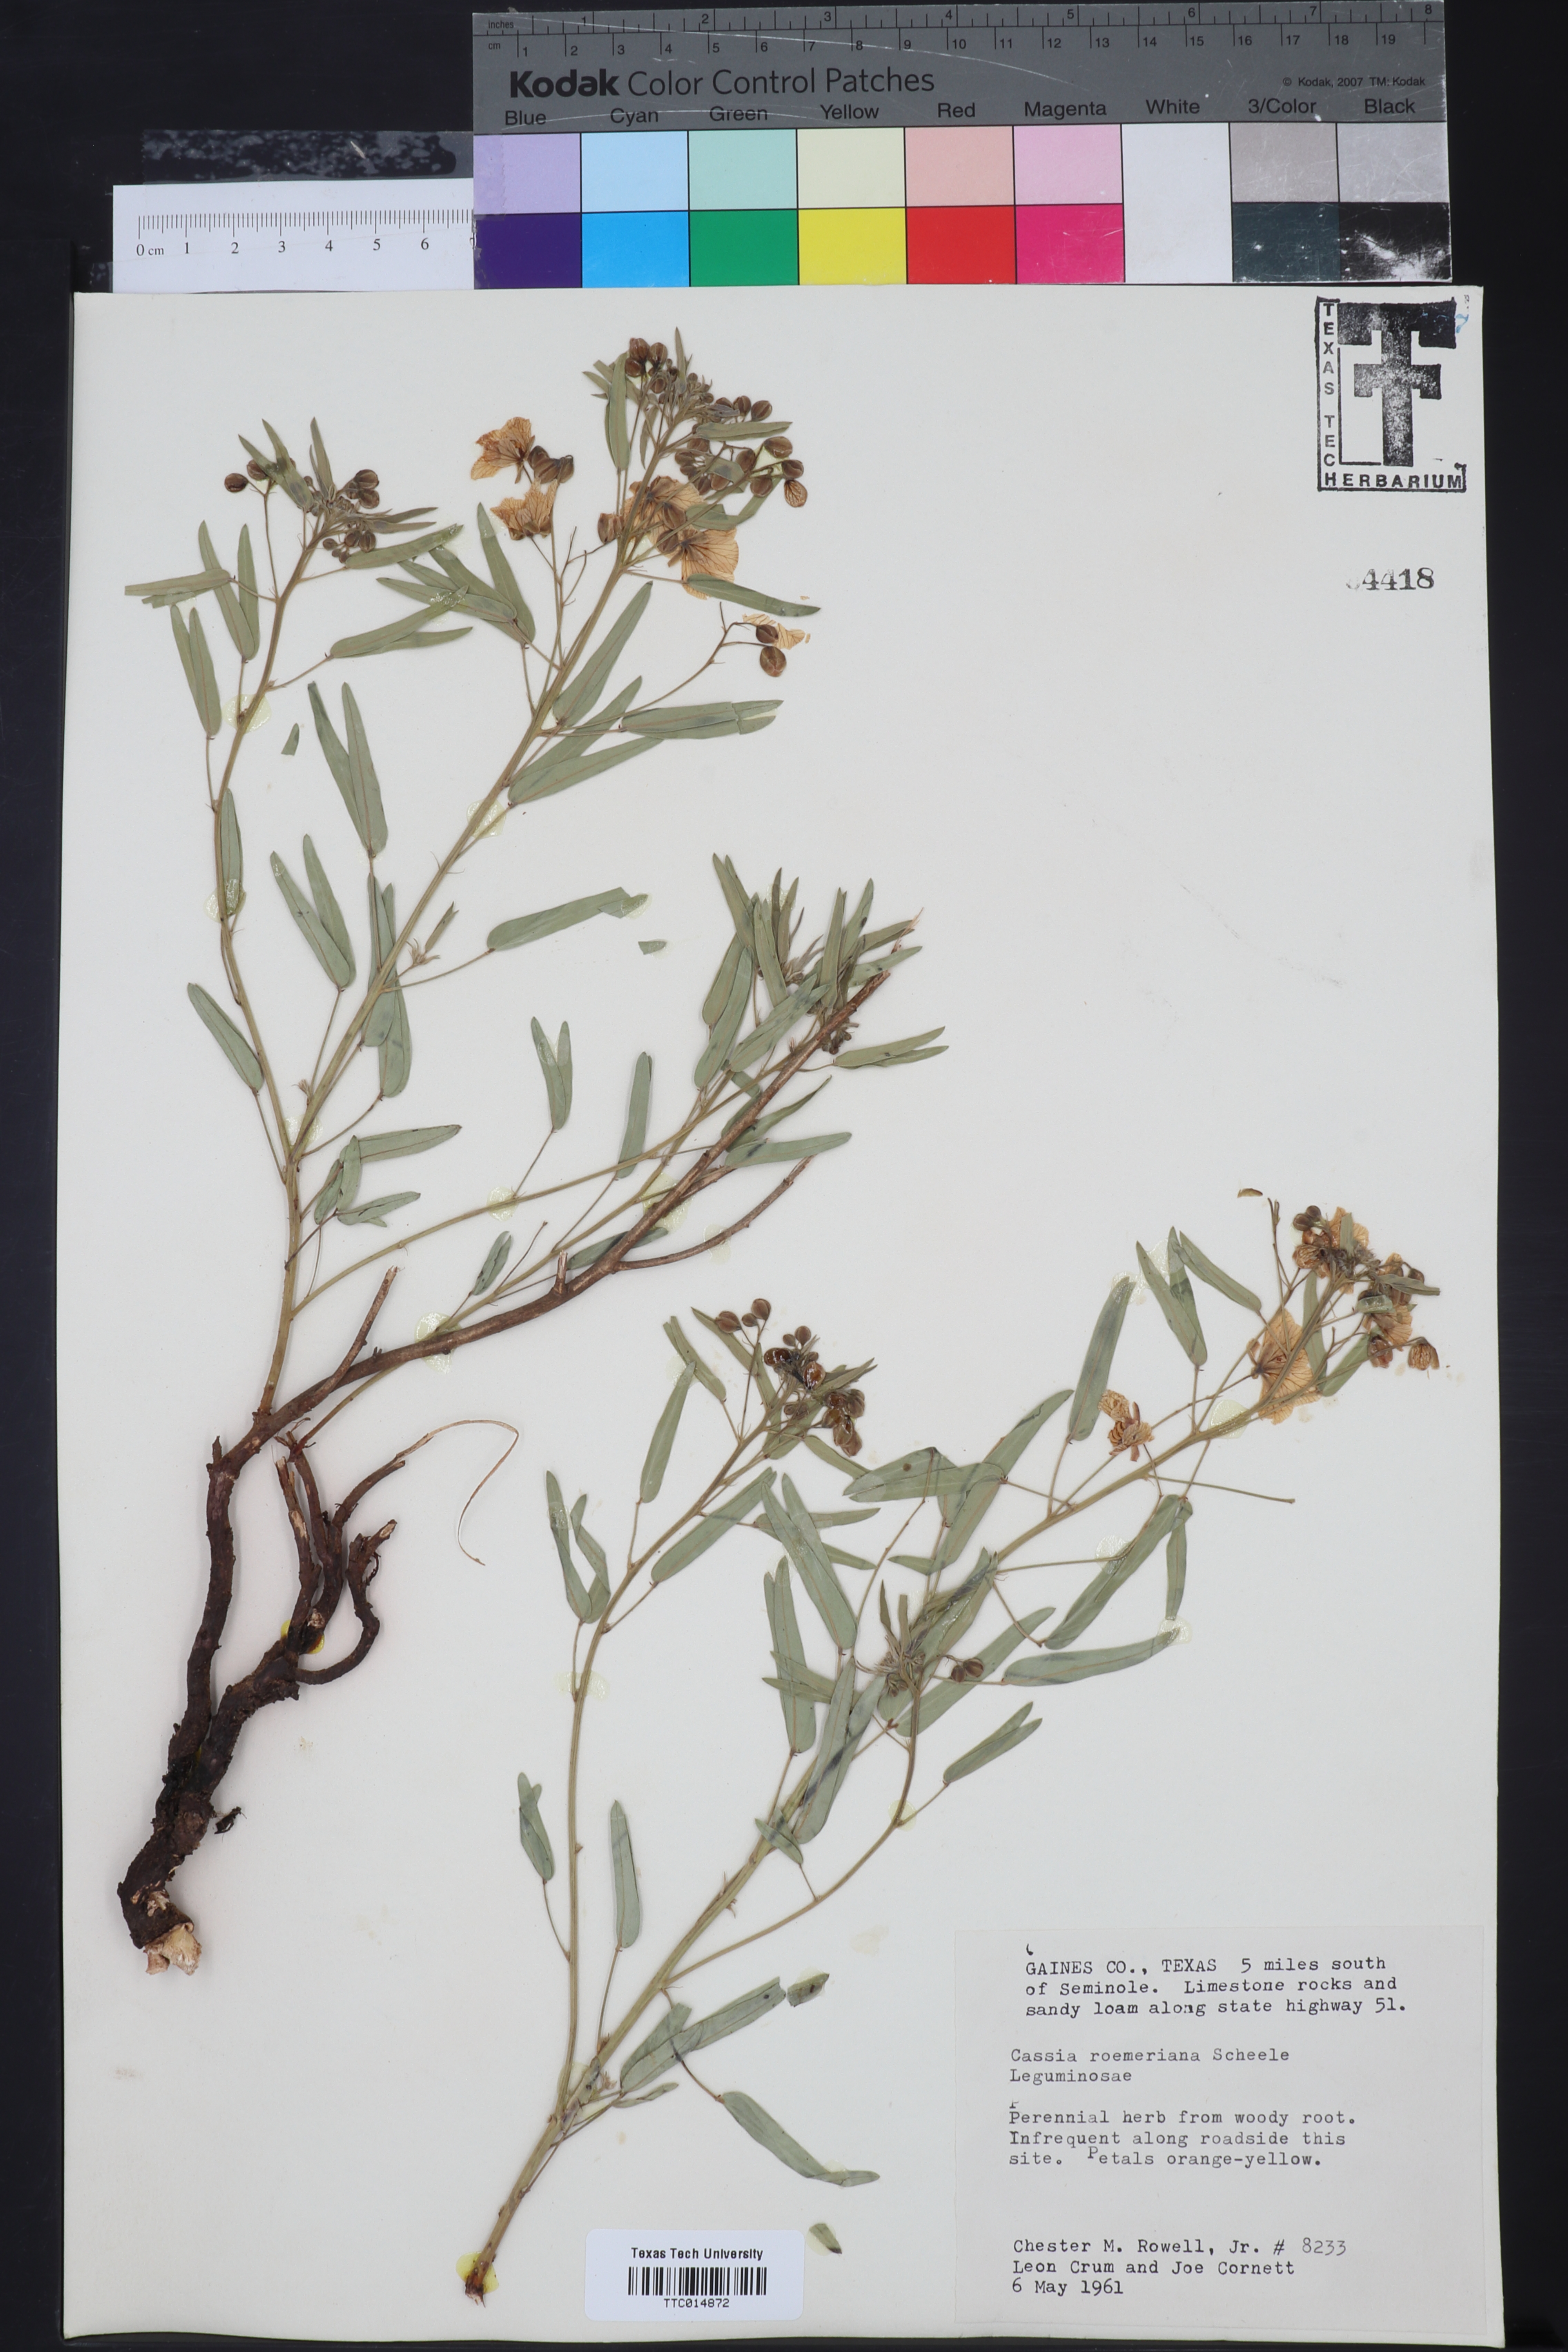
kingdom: Plantae
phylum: Tracheophyta
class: Magnoliopsida
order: Fabales
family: Fabaceae
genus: Senna
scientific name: Senna roemeriana
